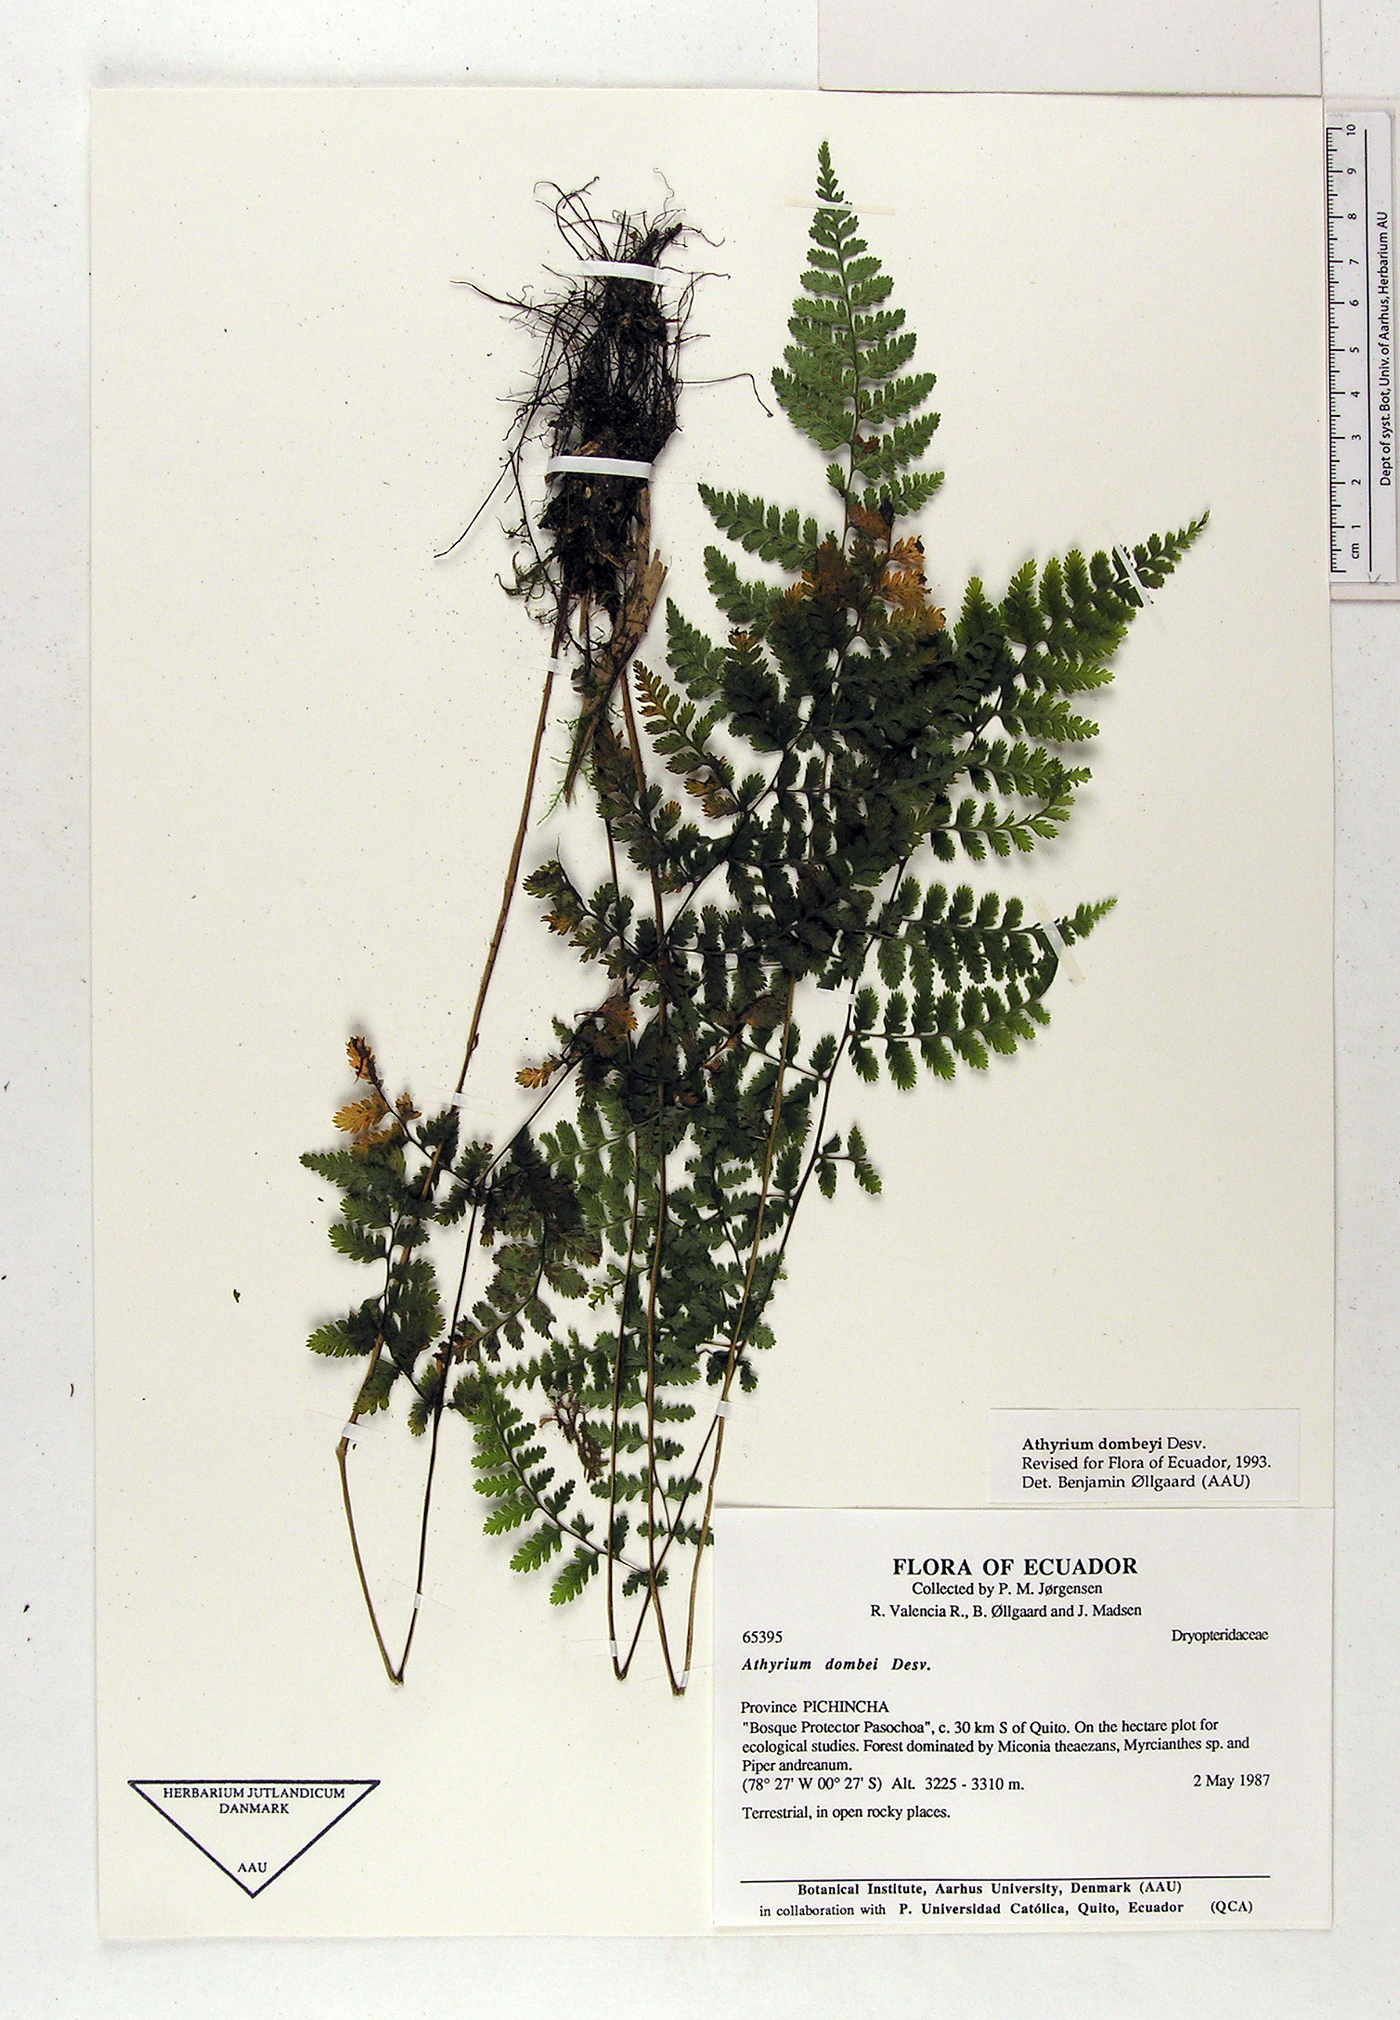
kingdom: Plantae
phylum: Tracheophyta
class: Polypodiopsida
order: Polypodiales
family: Athyriaceae
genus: Athyrium
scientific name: Athyrium dombeyi
